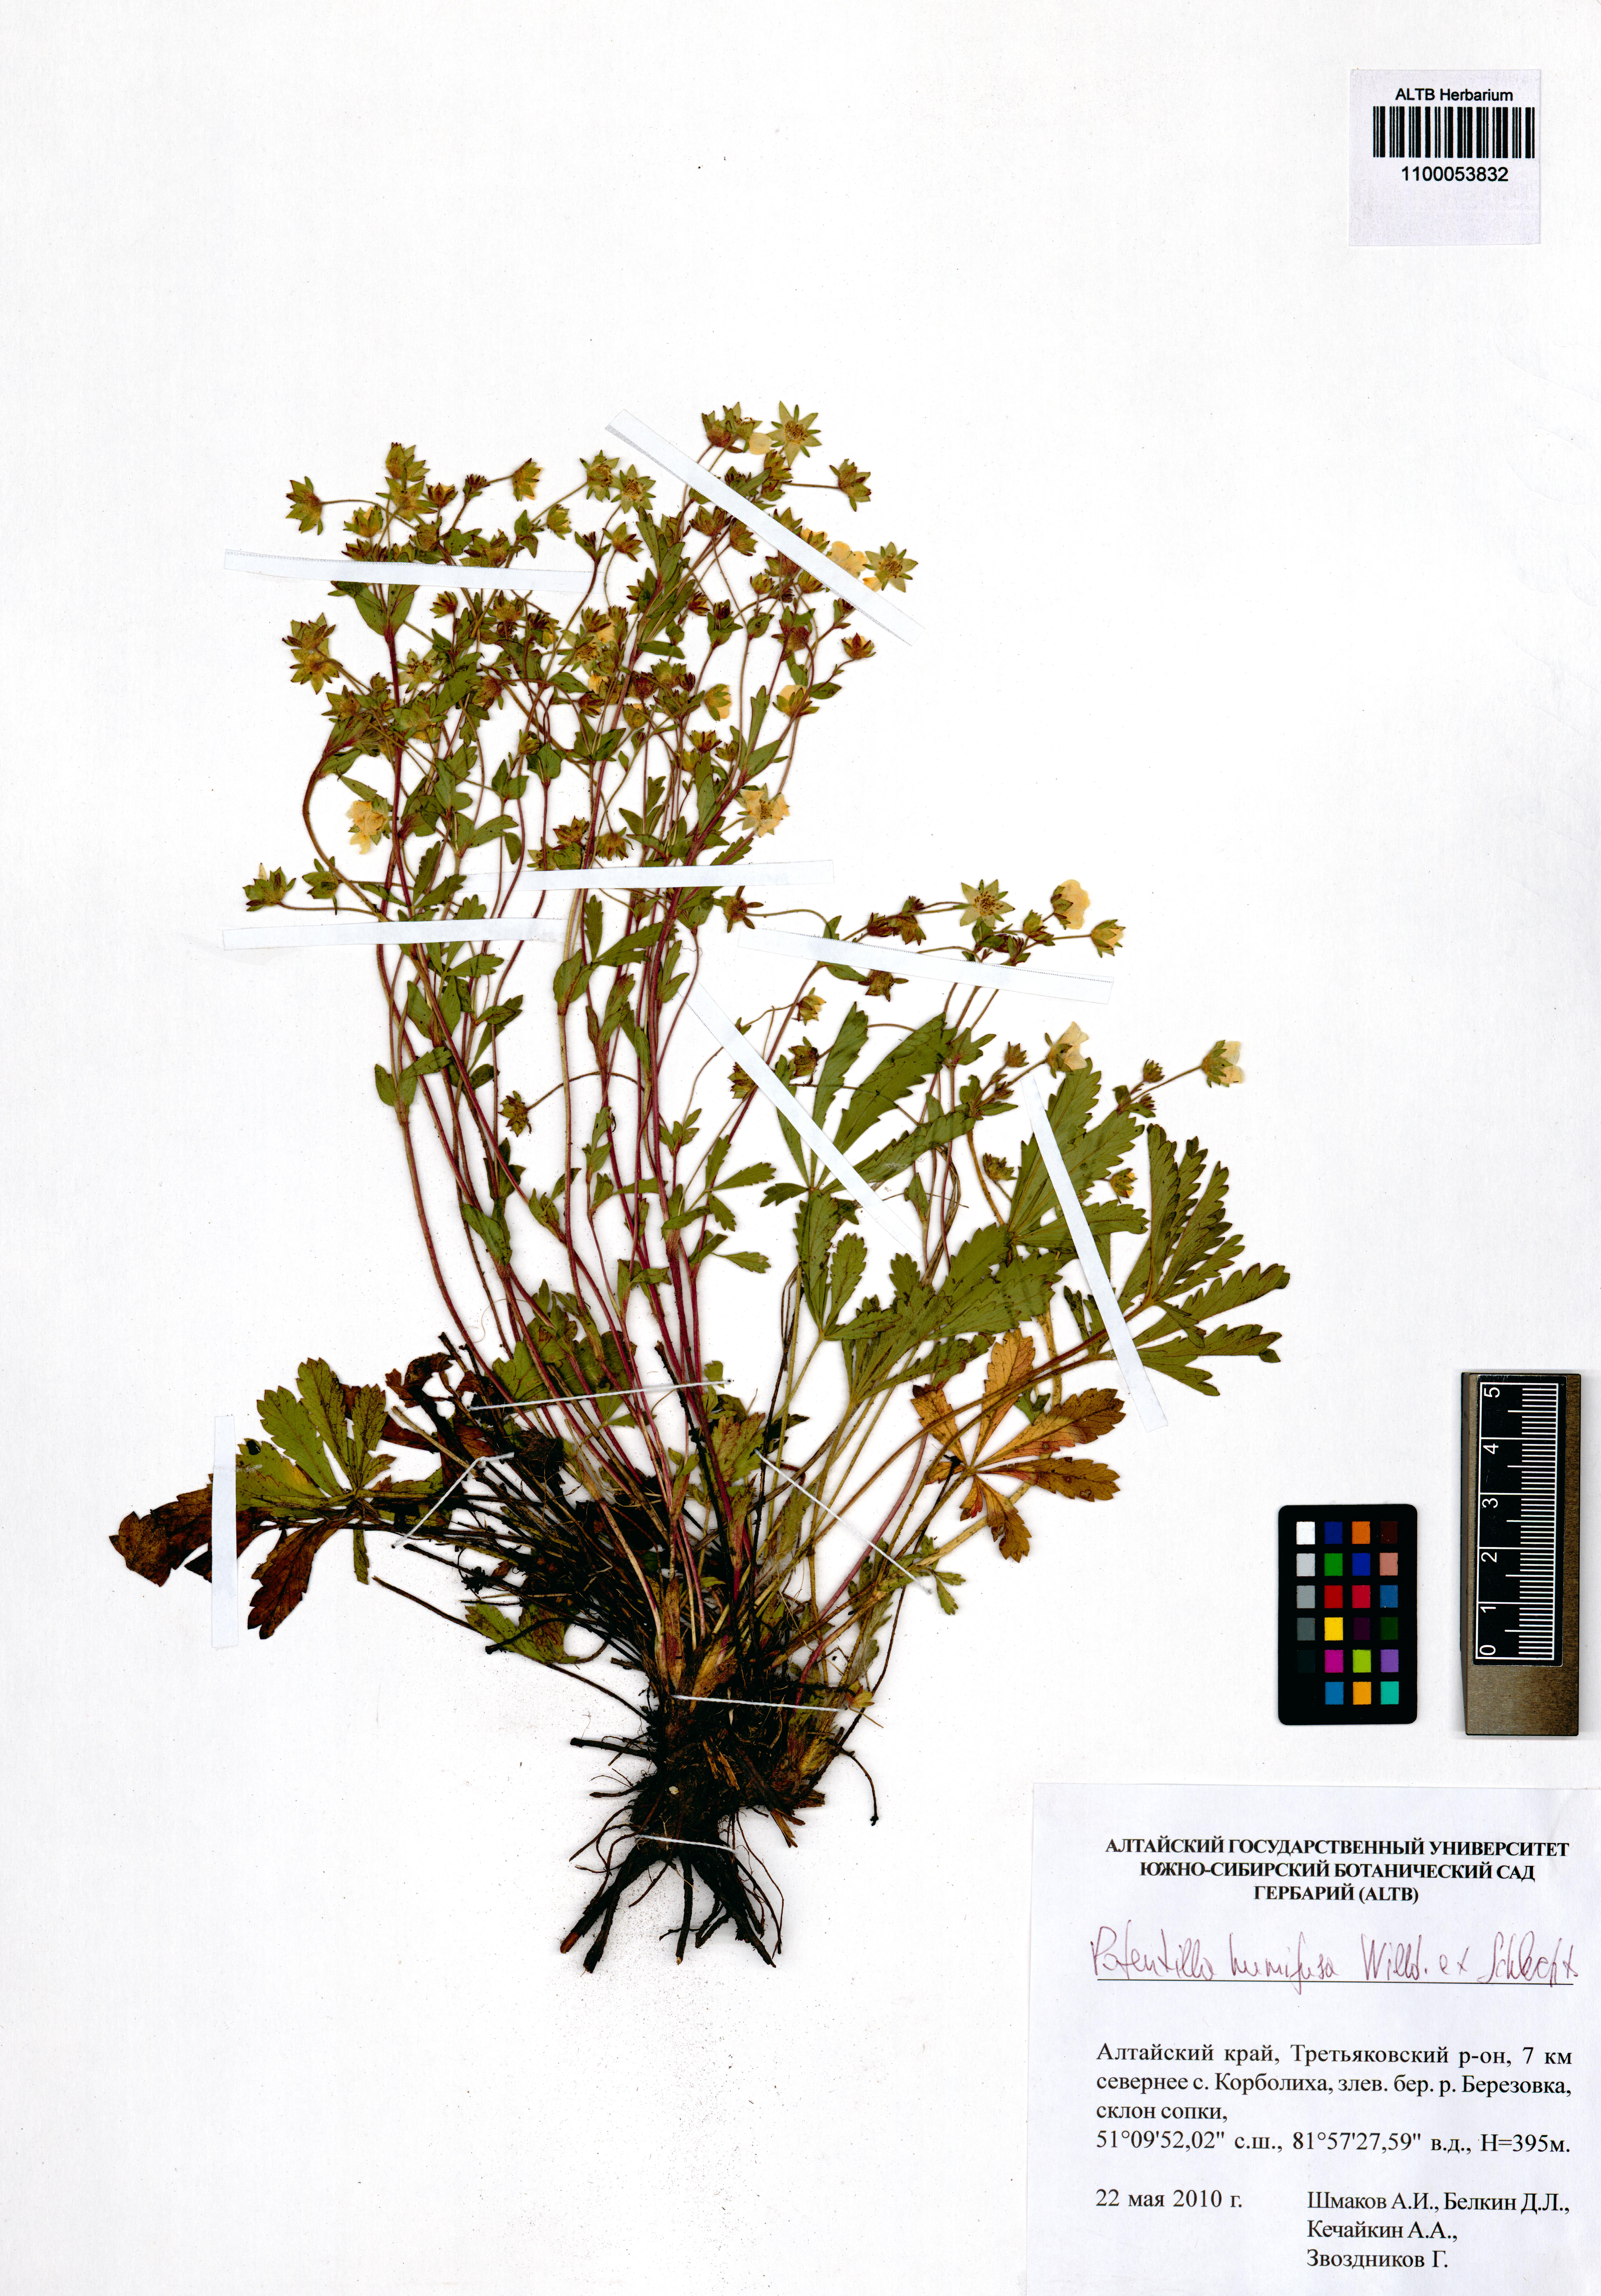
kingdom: Plantae
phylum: Tracheophyta
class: Magnoliopsida
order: Rosales
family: Rosaceae
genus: Potentilla
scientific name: Potentilla humifusa
